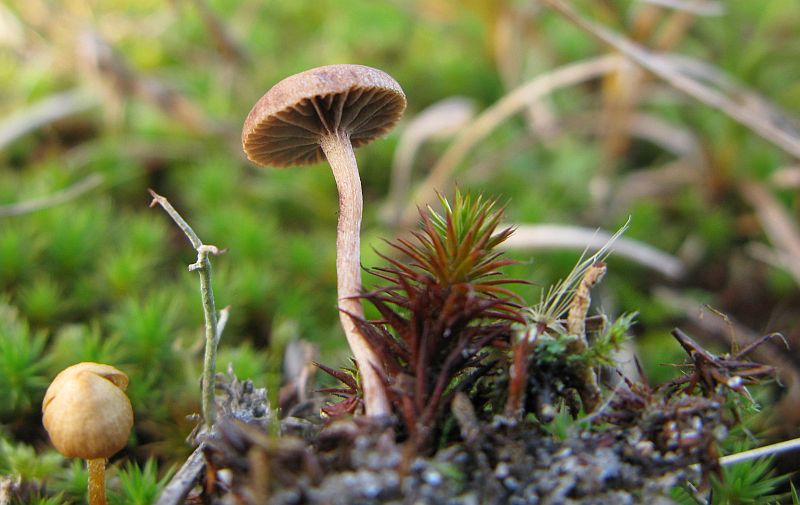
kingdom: Fungi
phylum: Basidiomycota
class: Agaricomycetes
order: Agaricales
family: Strophariaceae
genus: Deconica
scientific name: Deconica montana
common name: rødbrun stråhat
